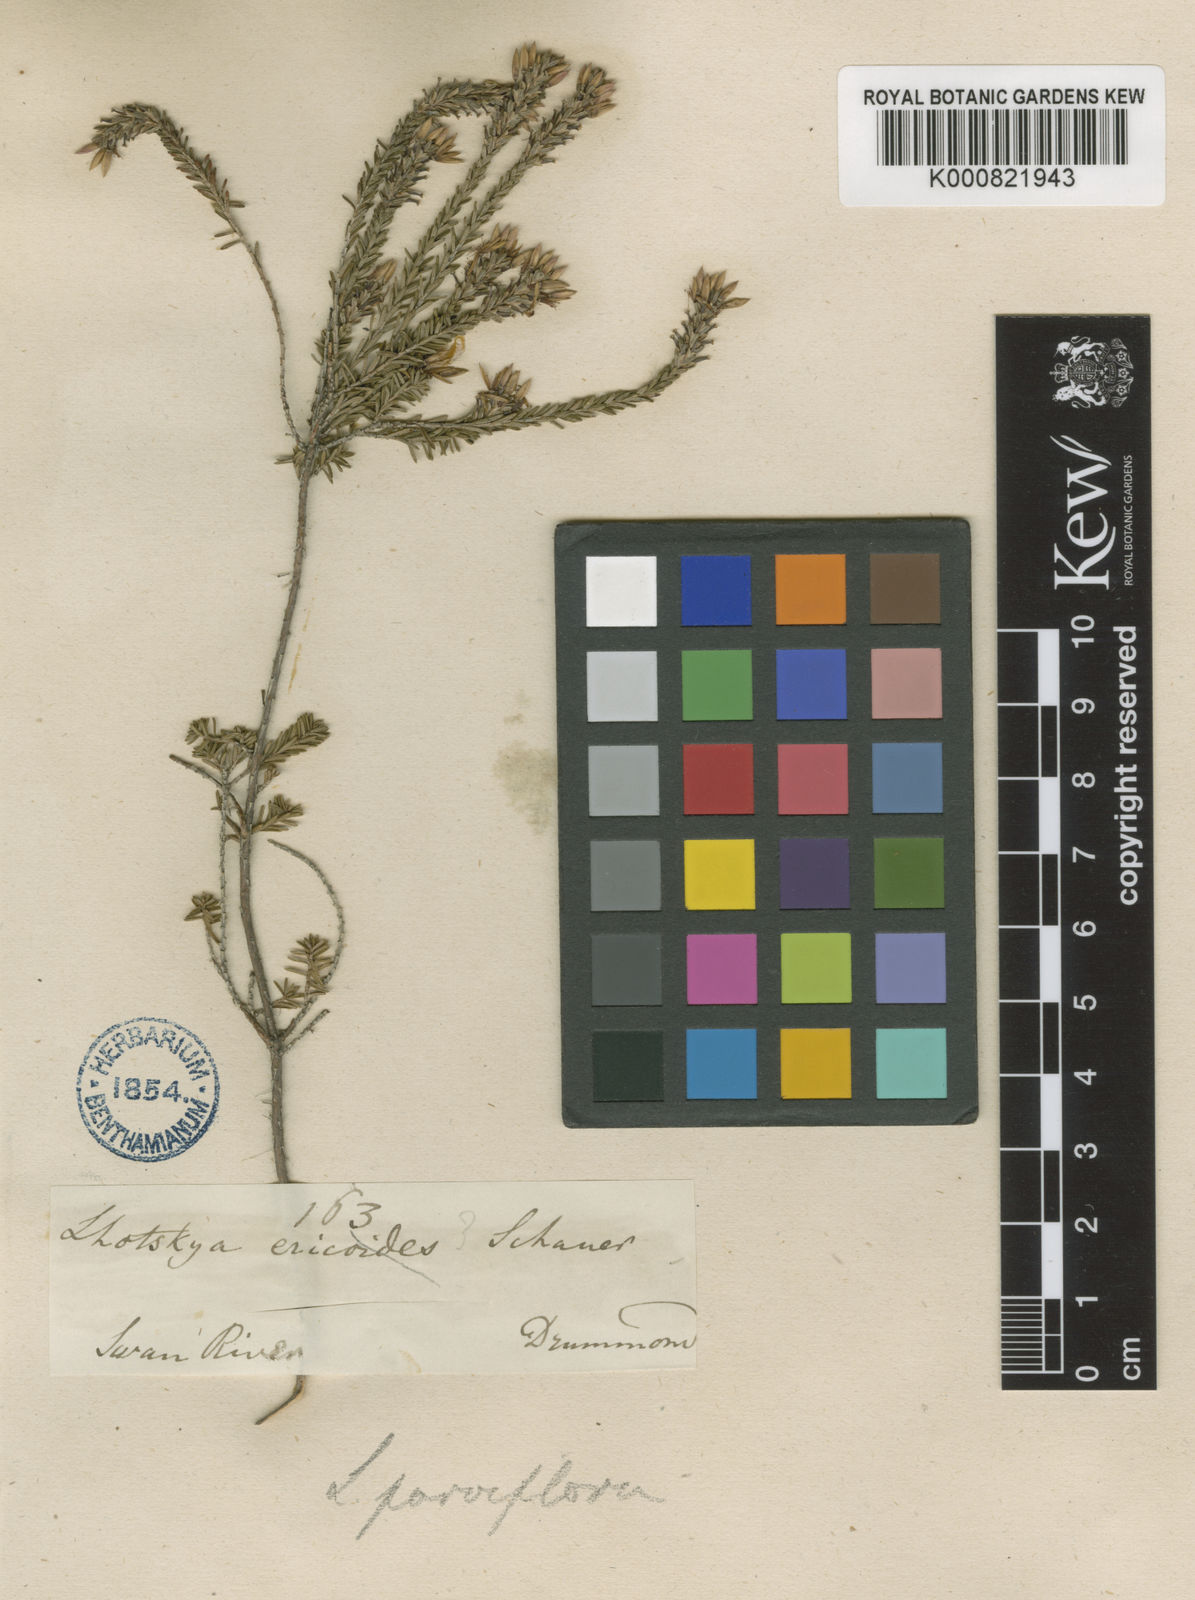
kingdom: Plantae
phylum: Tracheophyta
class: Magnoliopsida
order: Myrtales
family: Myrtaceae
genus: Calytrix
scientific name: Calytrix sylvana
